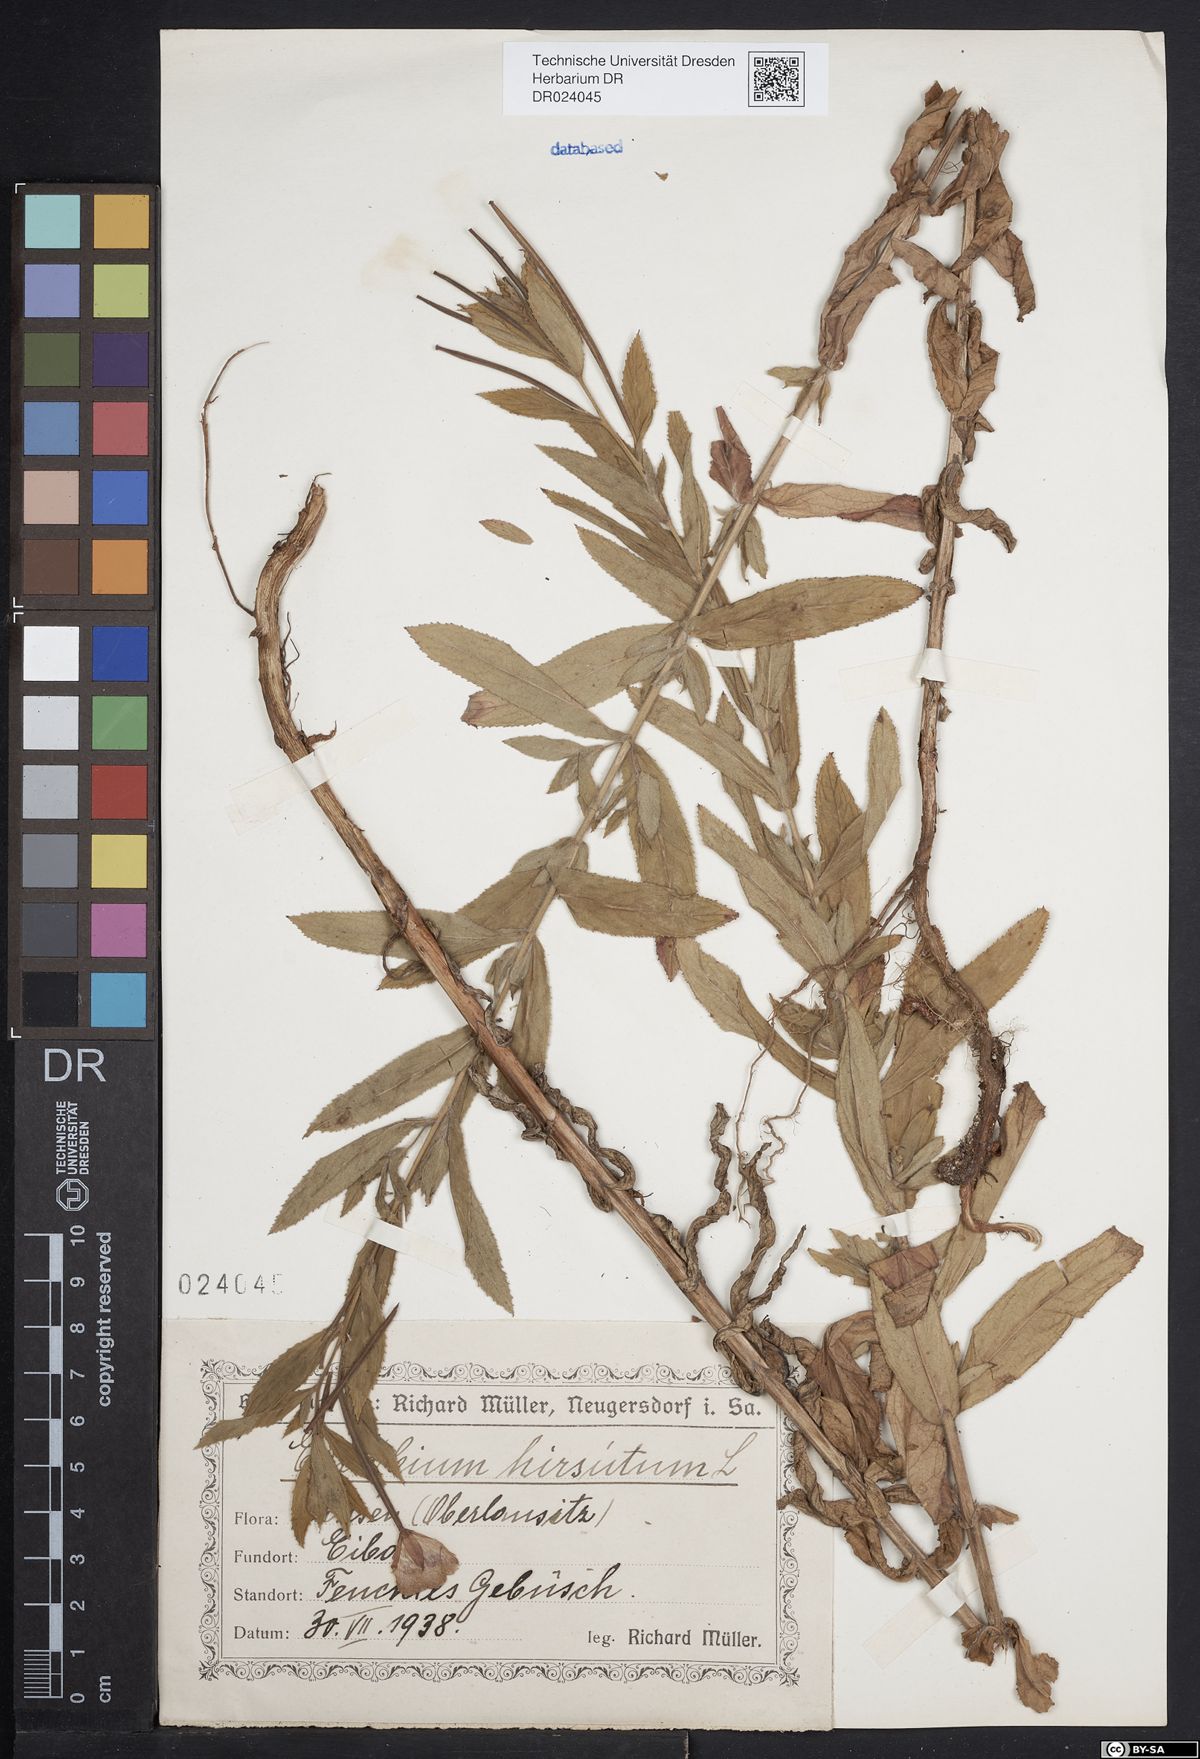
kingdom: Plantae
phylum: Tracheophyta
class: Magnoliopsida
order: Myrtales
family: Onagraceae
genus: Epilobium
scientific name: Epilobium hirsutum
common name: Great willowherb
